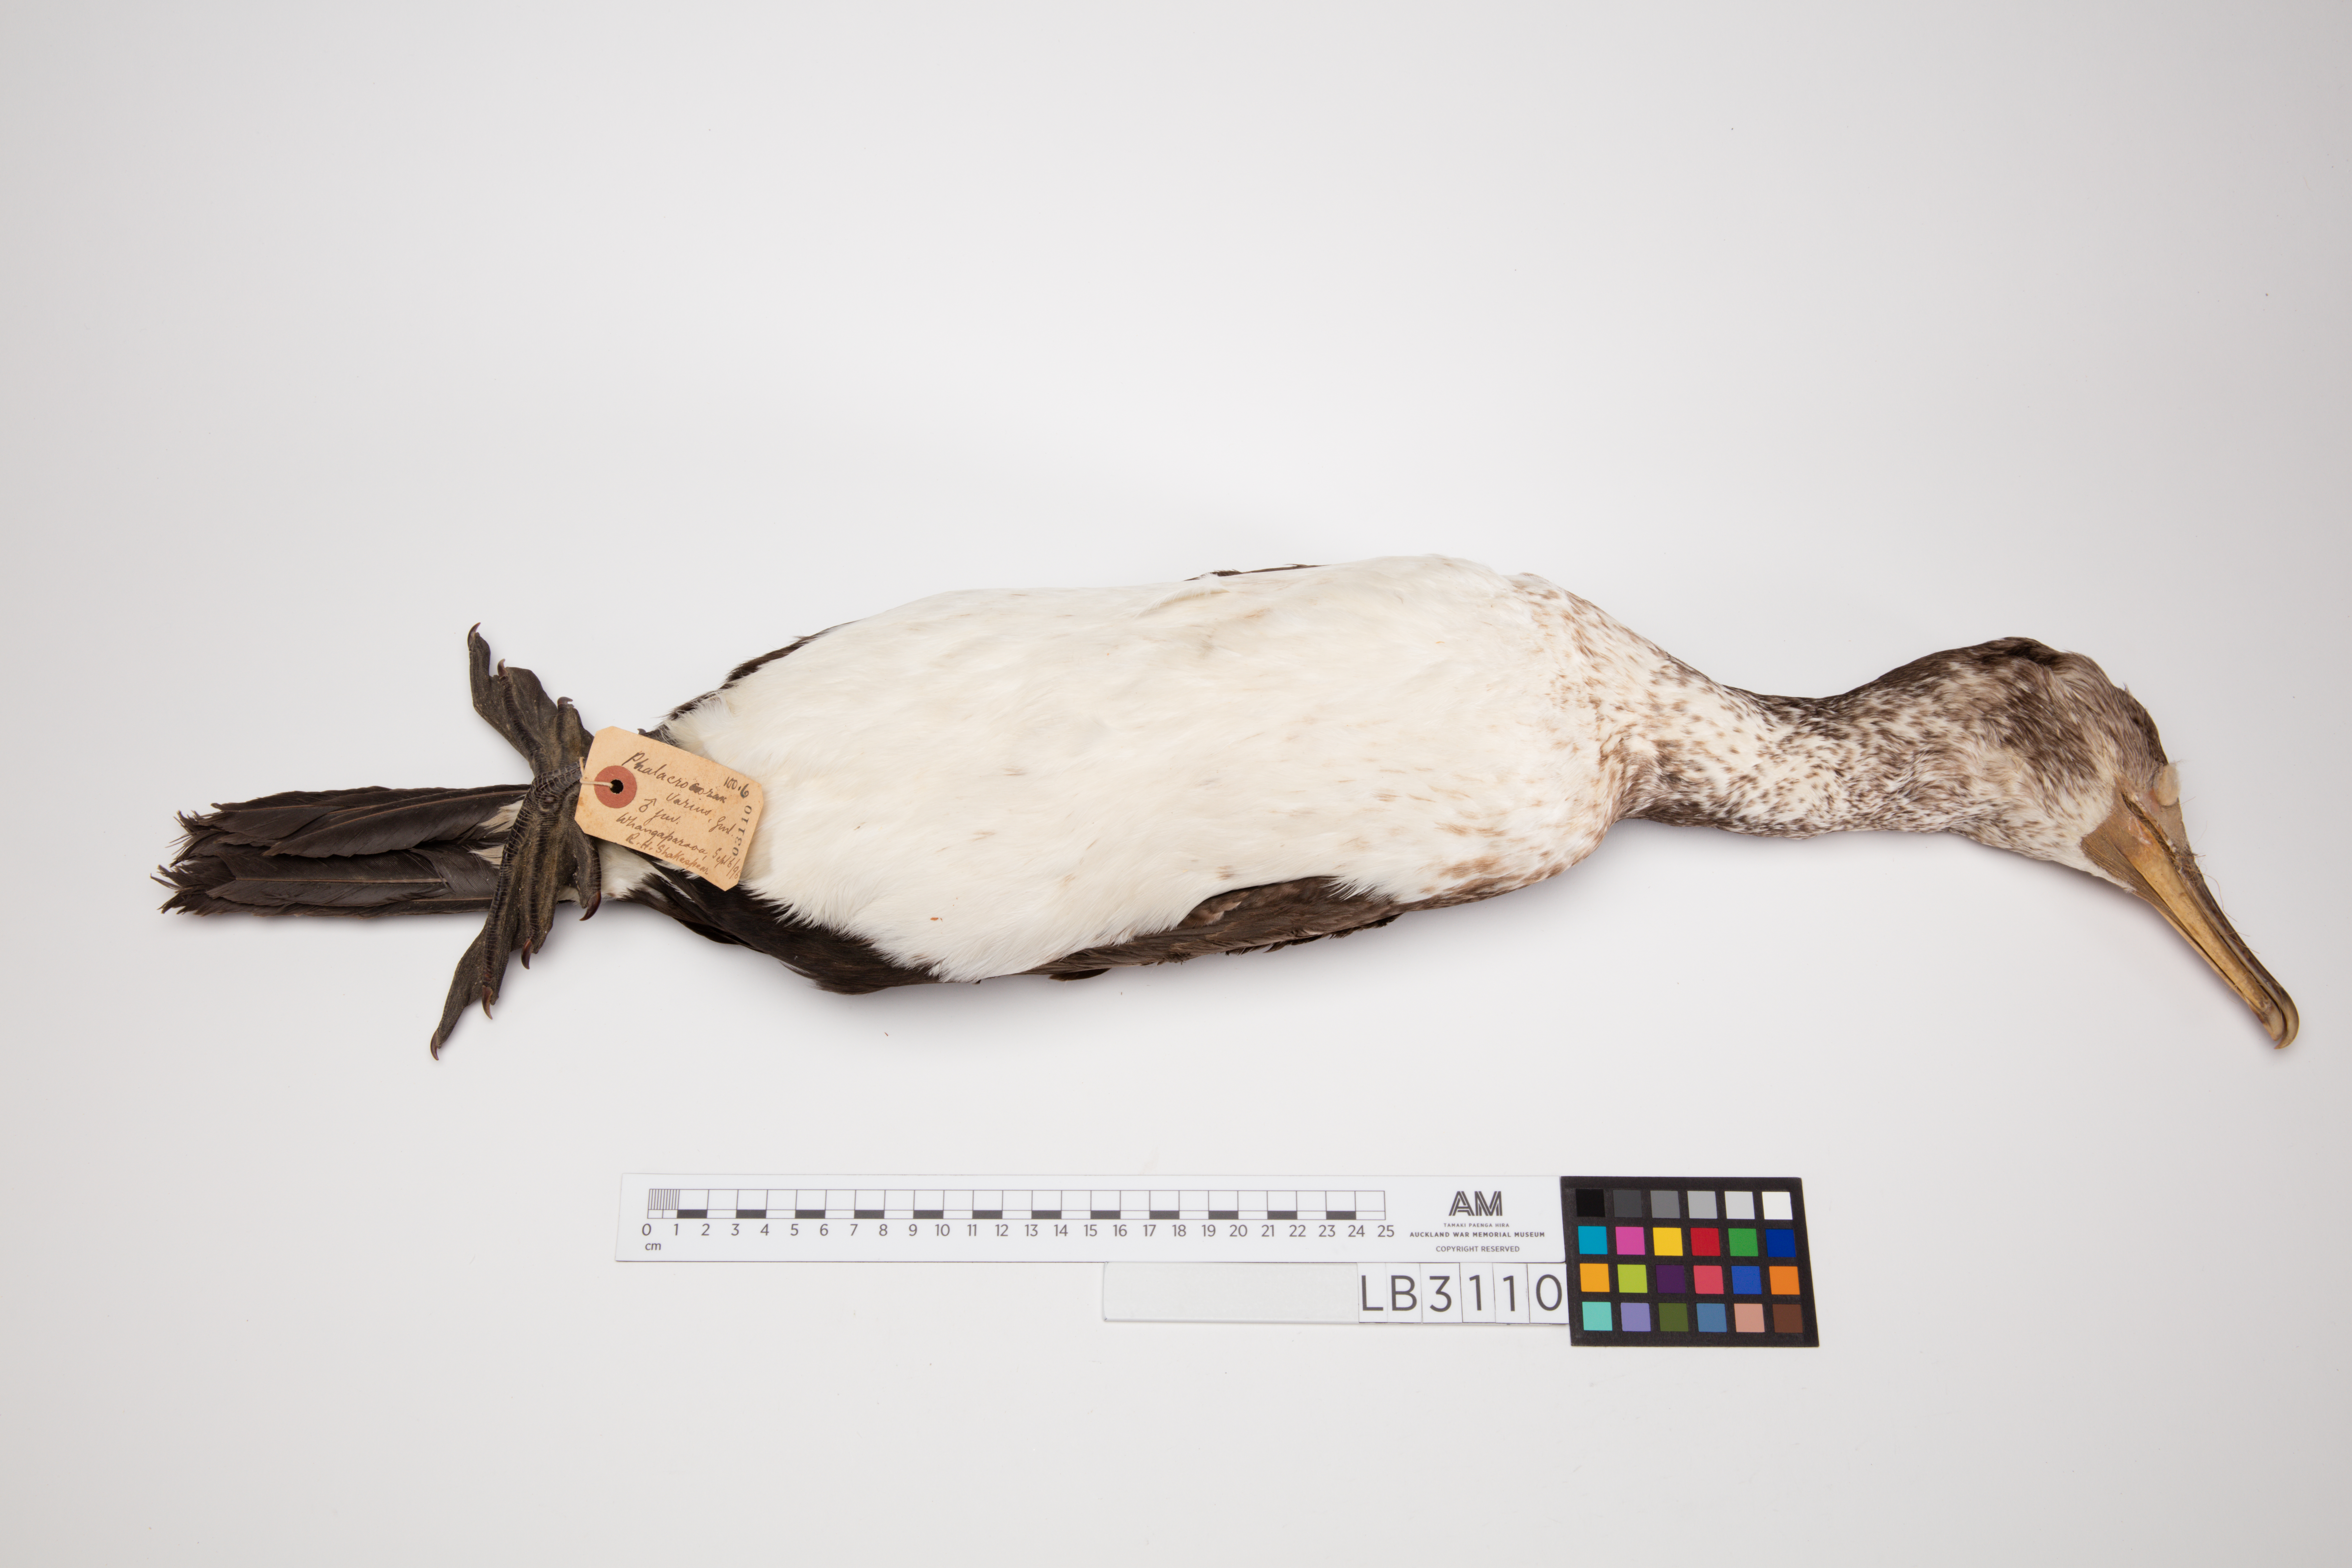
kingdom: Animalia
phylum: Chordata
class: Aves
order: Suliformes
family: Phalacrocoracidae
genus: Phalacrocorax
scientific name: Phalacrocorax varius
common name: Pied cormorant
